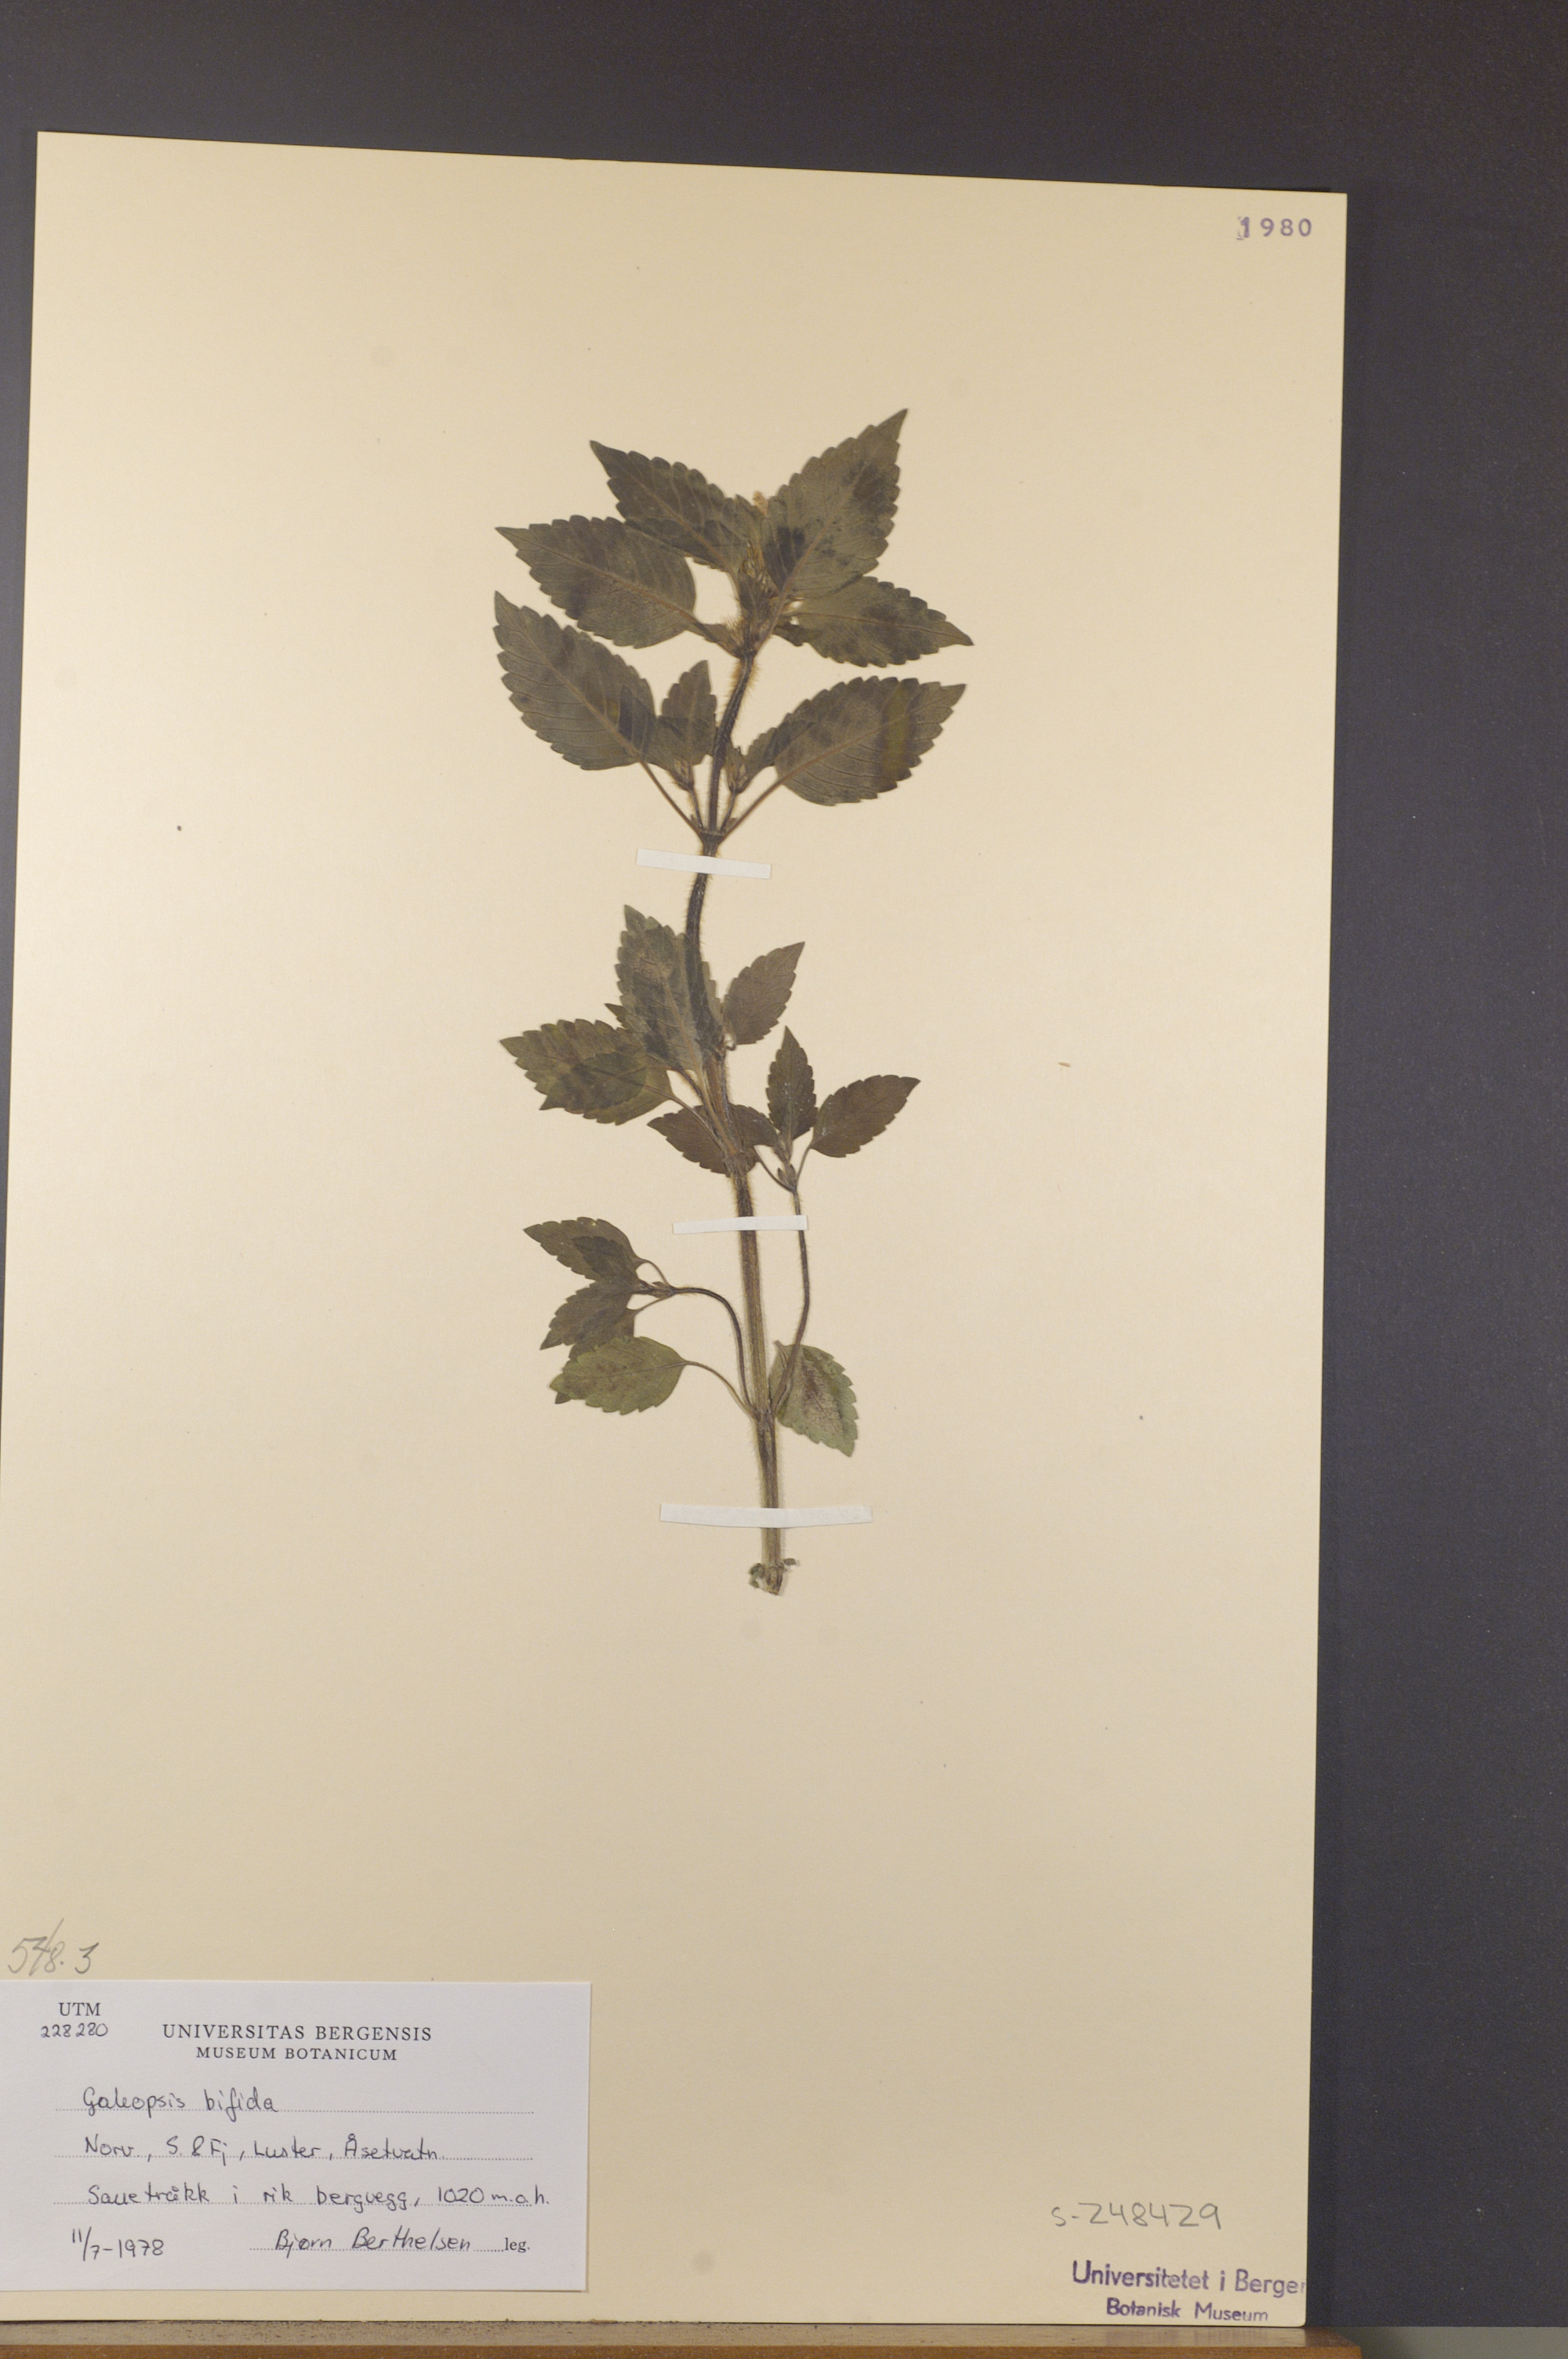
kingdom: Plantae
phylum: Tracheophyta
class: Magnoliopsida
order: Lamiales
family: Lamiaceae
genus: Galeopsis
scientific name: Galeopsis bifida
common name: Bifid hemp-nettle
